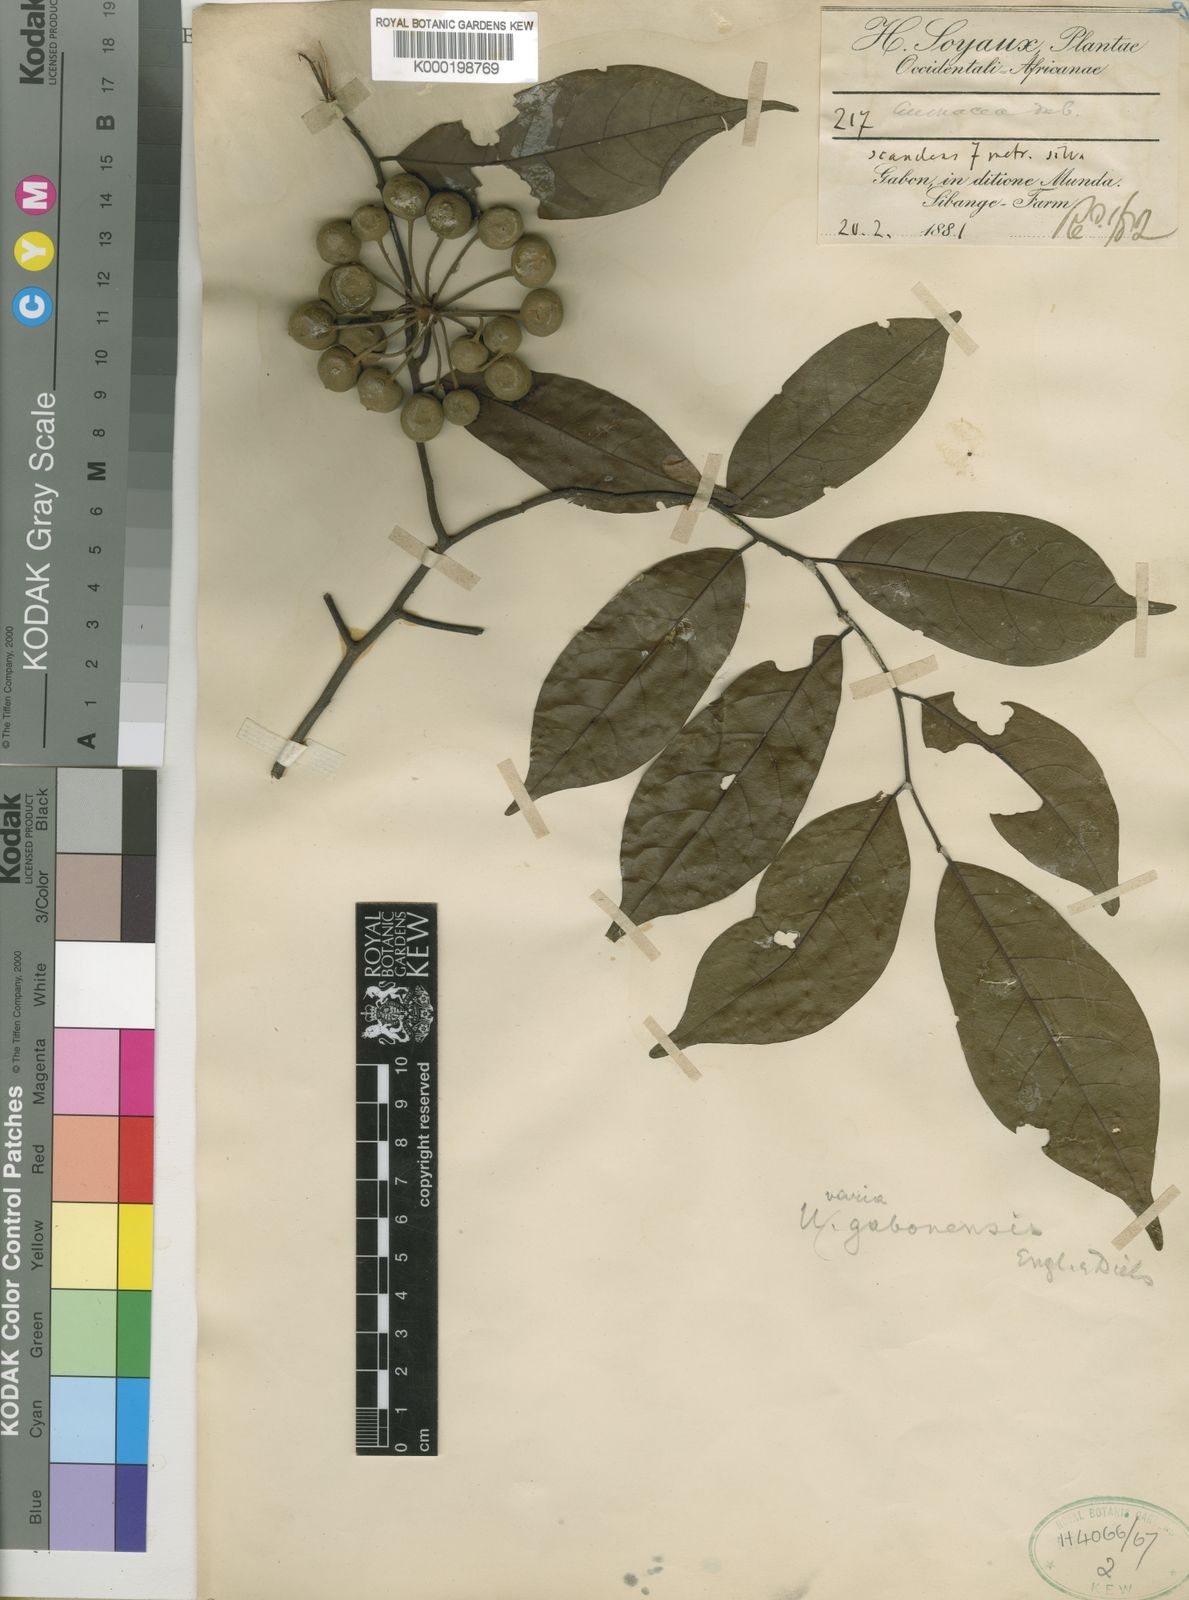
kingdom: Plantae
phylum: Tracheophyta
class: Magnoliopsida
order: Magnoliales
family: Annonaceae
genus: Uvaria
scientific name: Uvaria gabonensis
